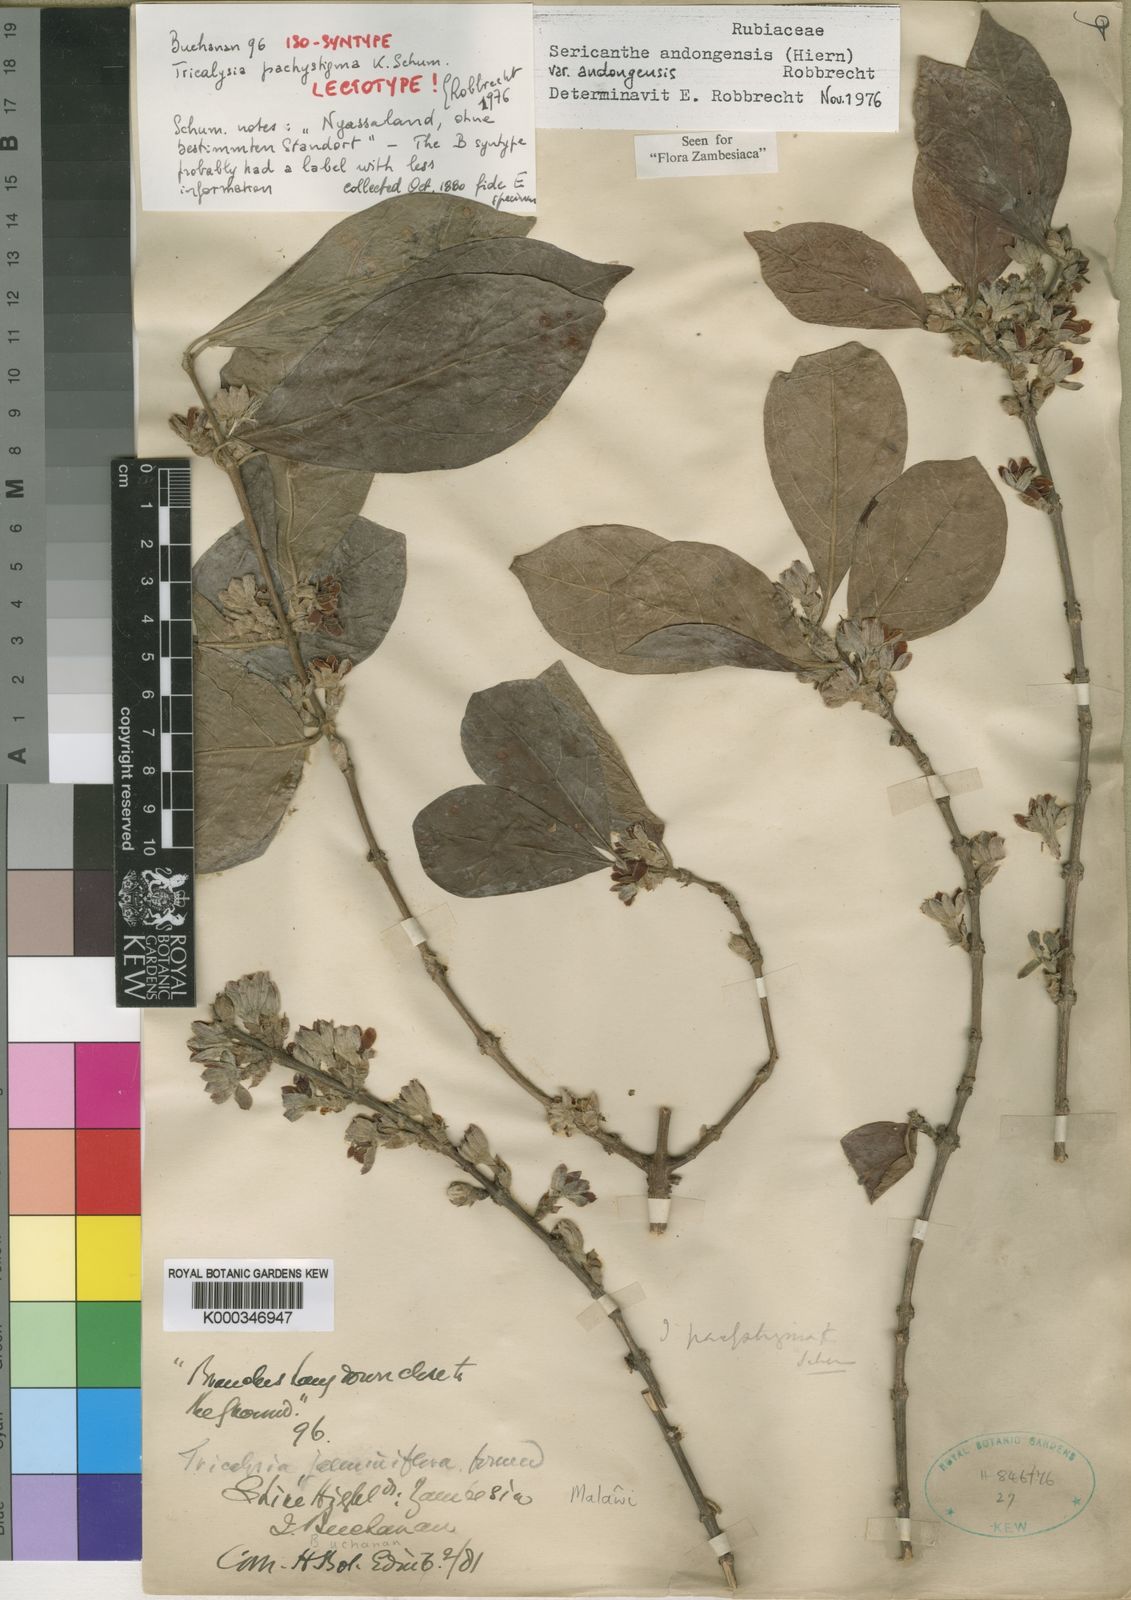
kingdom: Plantae
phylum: Tracheophyta
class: Magnoliopsida
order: Gentianales
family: Rubiaceae
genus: Sericanthe
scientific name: Sericanthe andongensis
